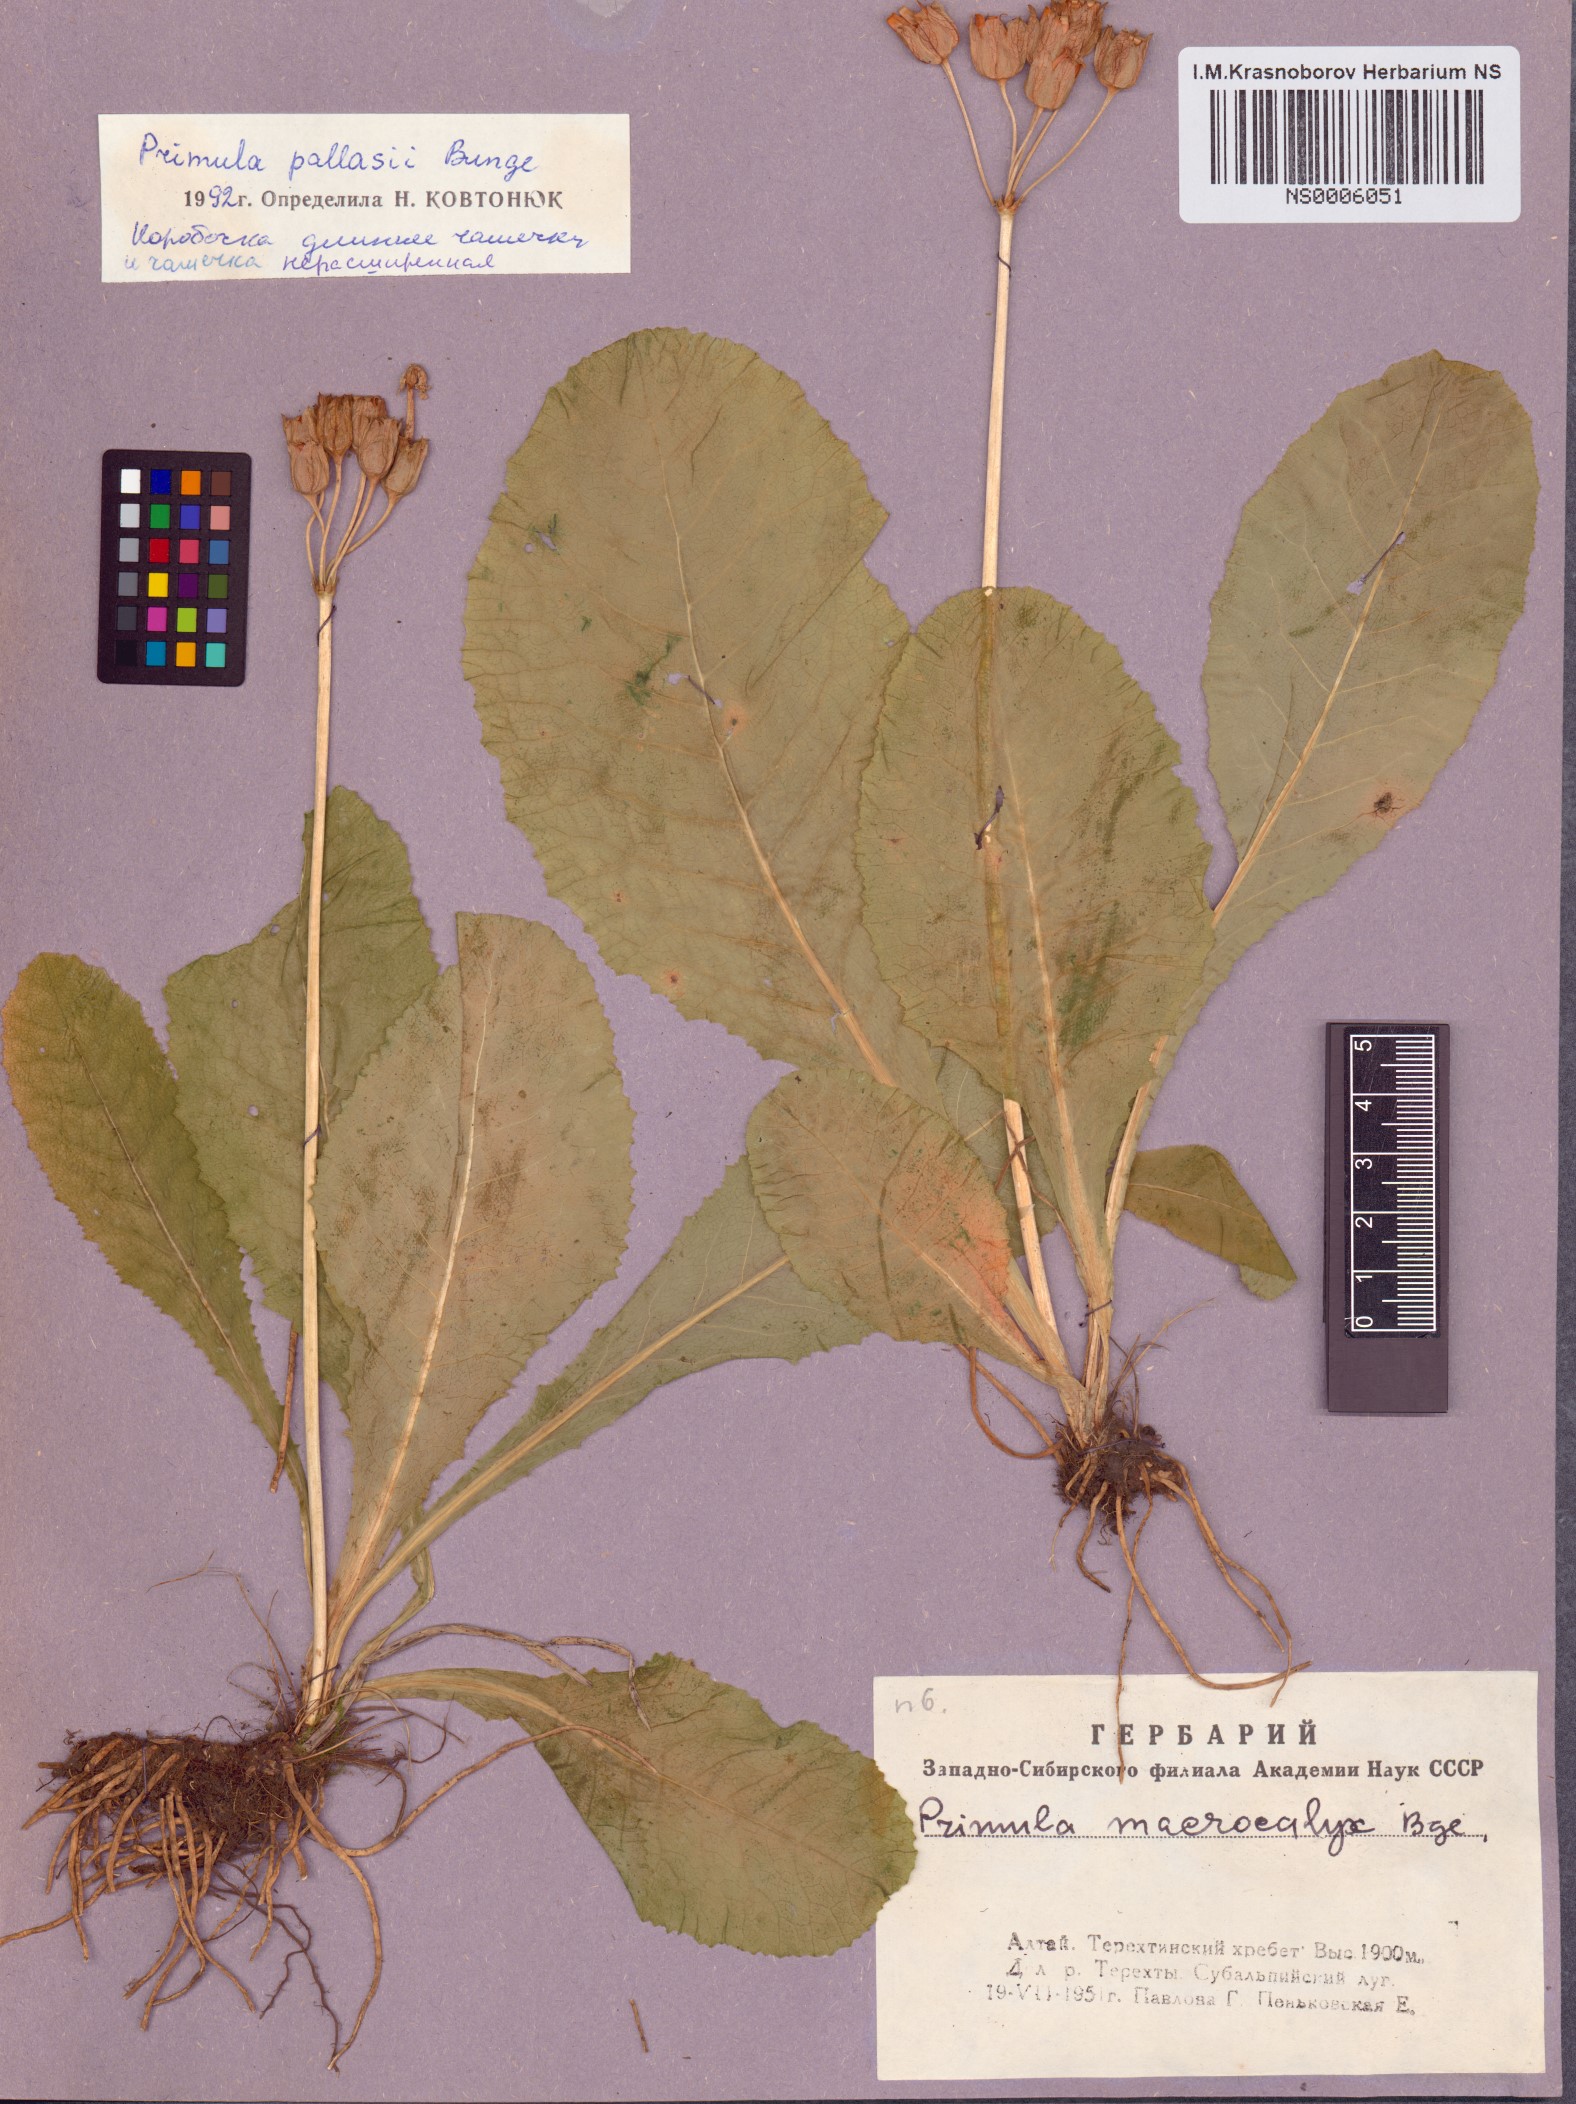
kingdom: Plantae
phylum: Tracheophyta
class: Magnoliopsida
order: Ericales
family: Primulaceae
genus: Primula
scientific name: Primula elatior
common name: Oxlip
